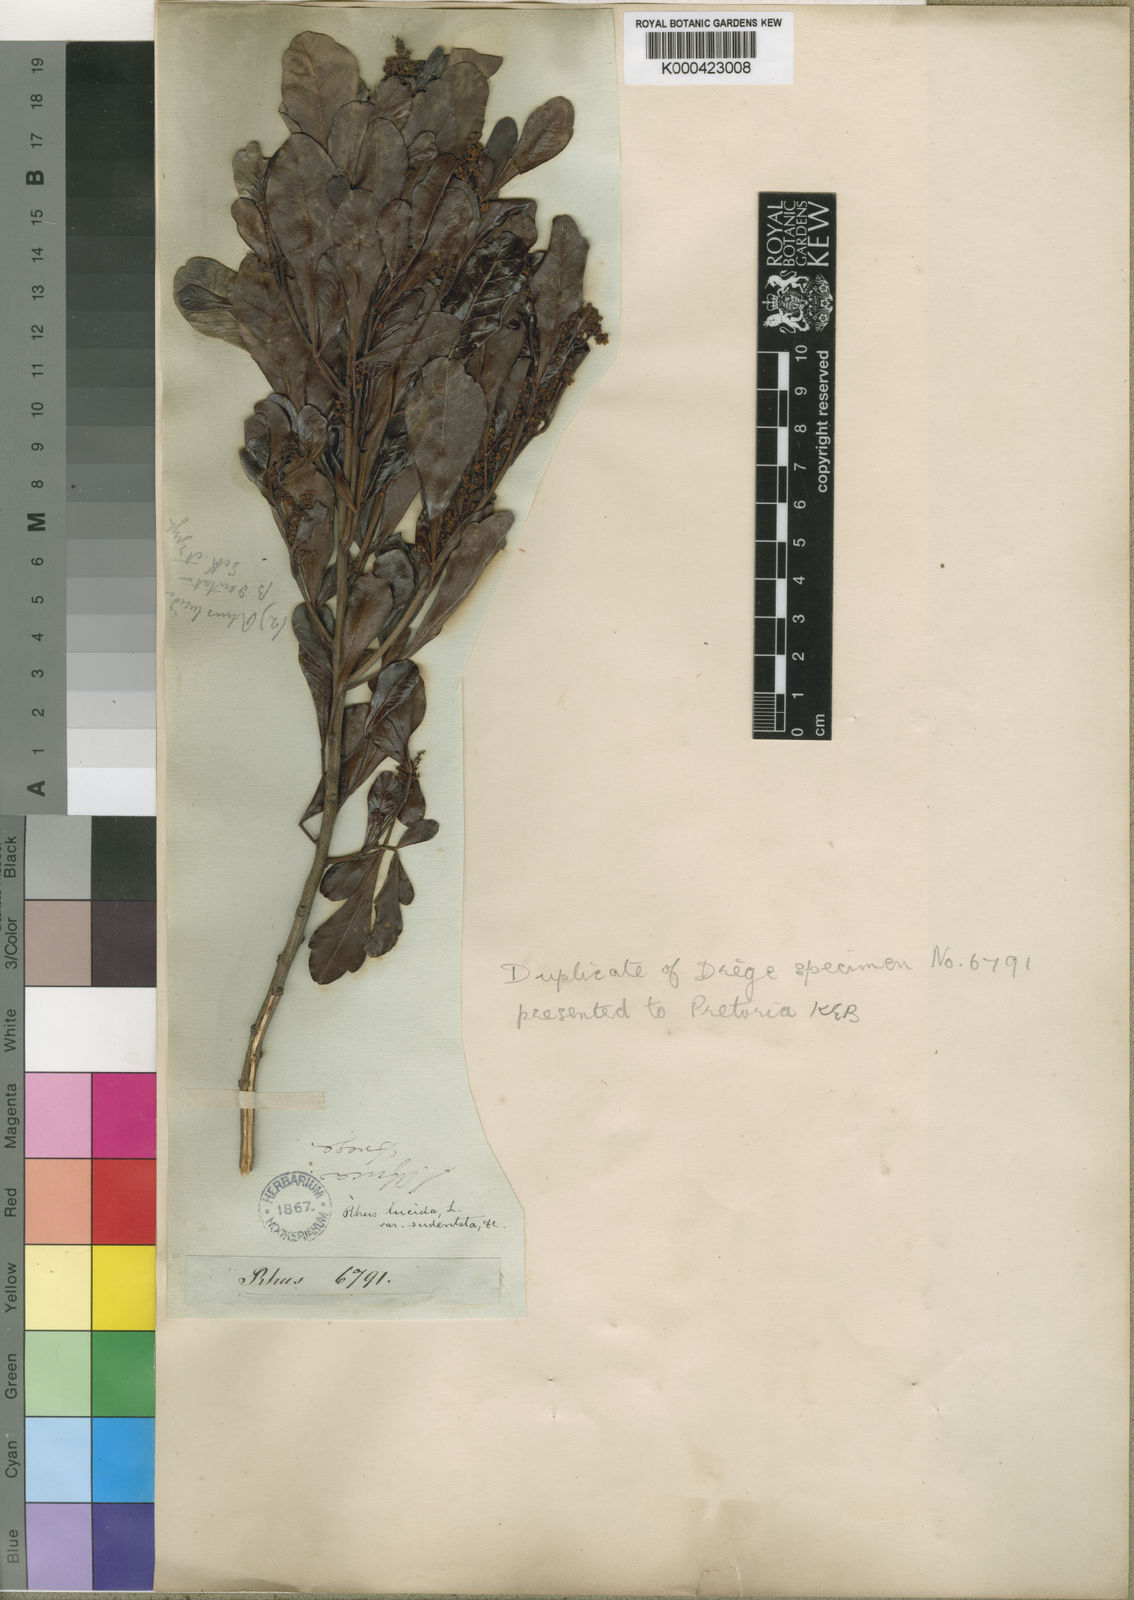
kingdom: Plantae
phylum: Tracheophyta
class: Magnoliopsida
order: Sapindales
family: Anacardiaceae
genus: Searsia
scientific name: Searsia lucida
